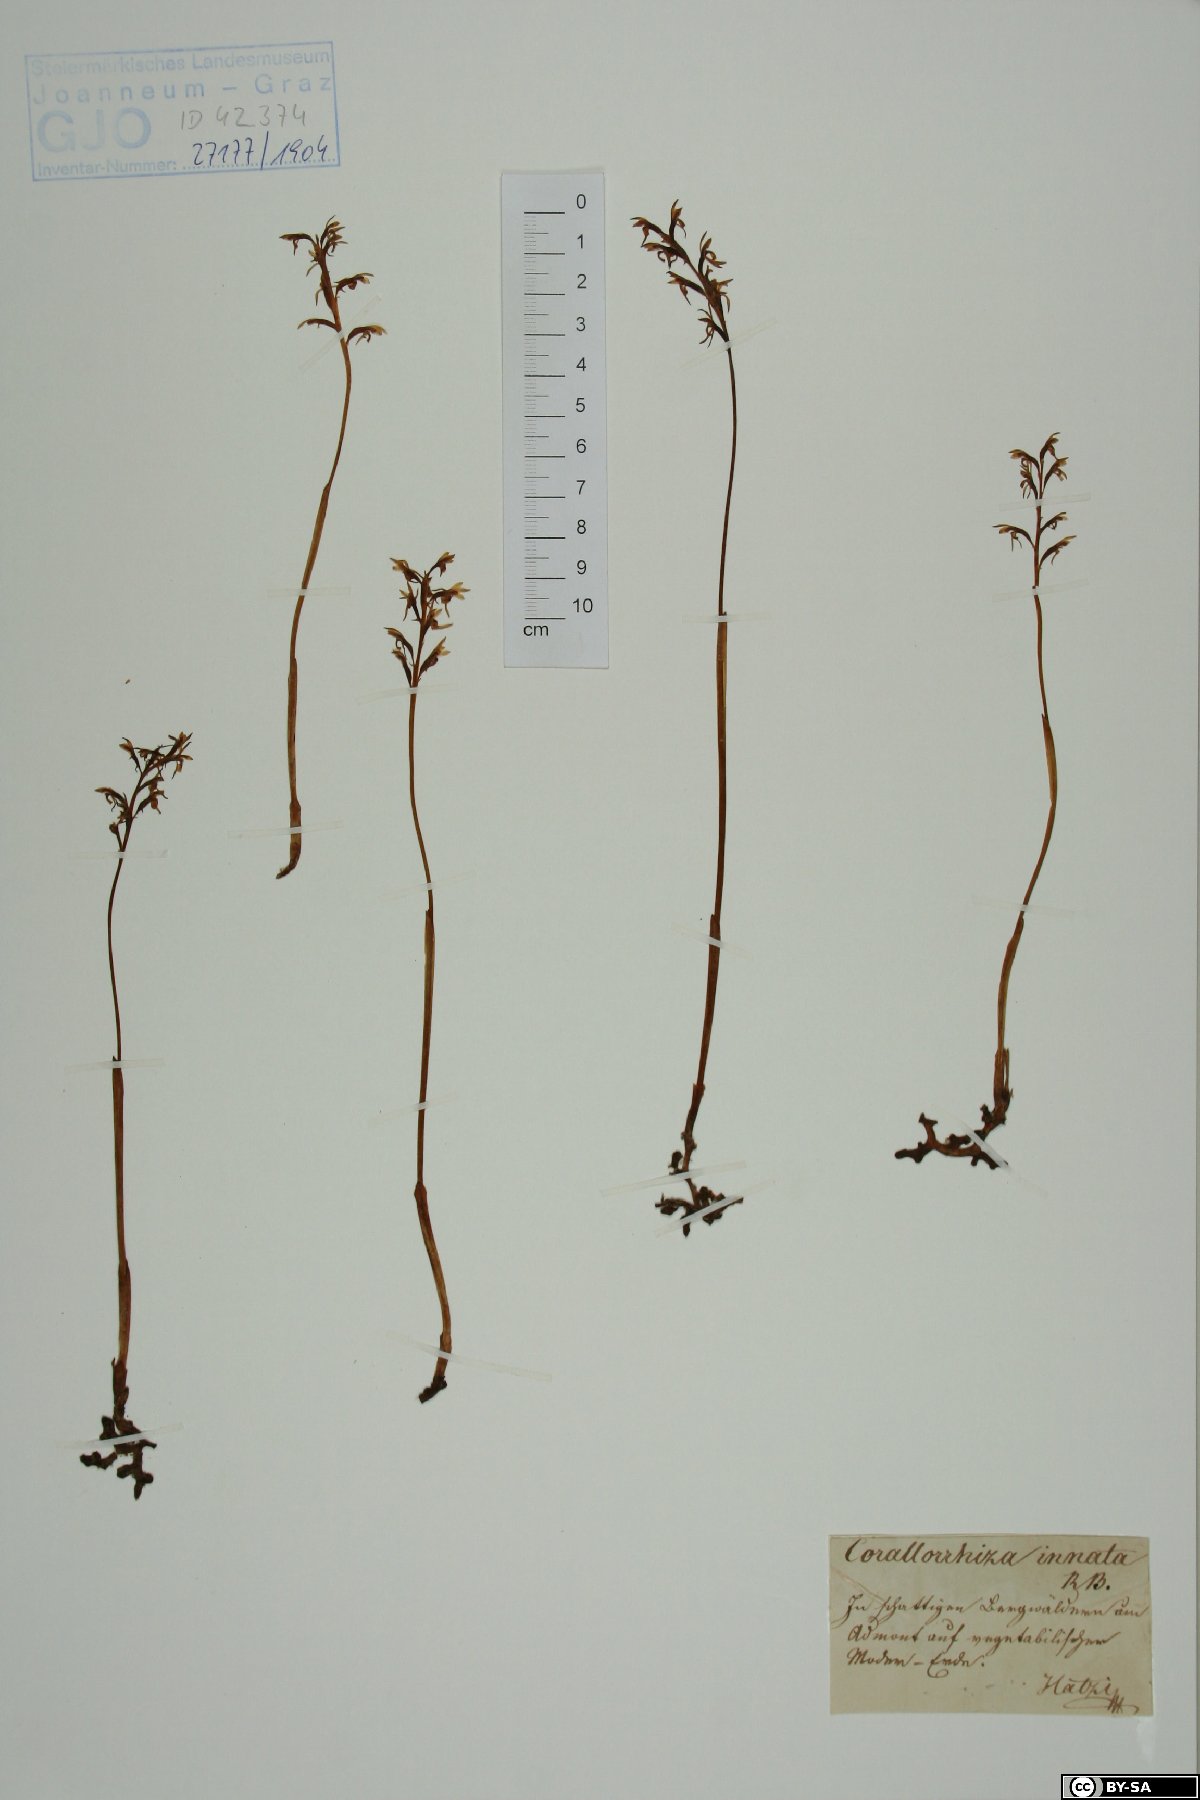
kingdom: Plantae
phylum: Tracheophyta
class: Liliopsida
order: Asparagales
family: Orchidaceae
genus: Corallorhiza
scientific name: Corallorhiza trifida
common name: Yellow coralroot
